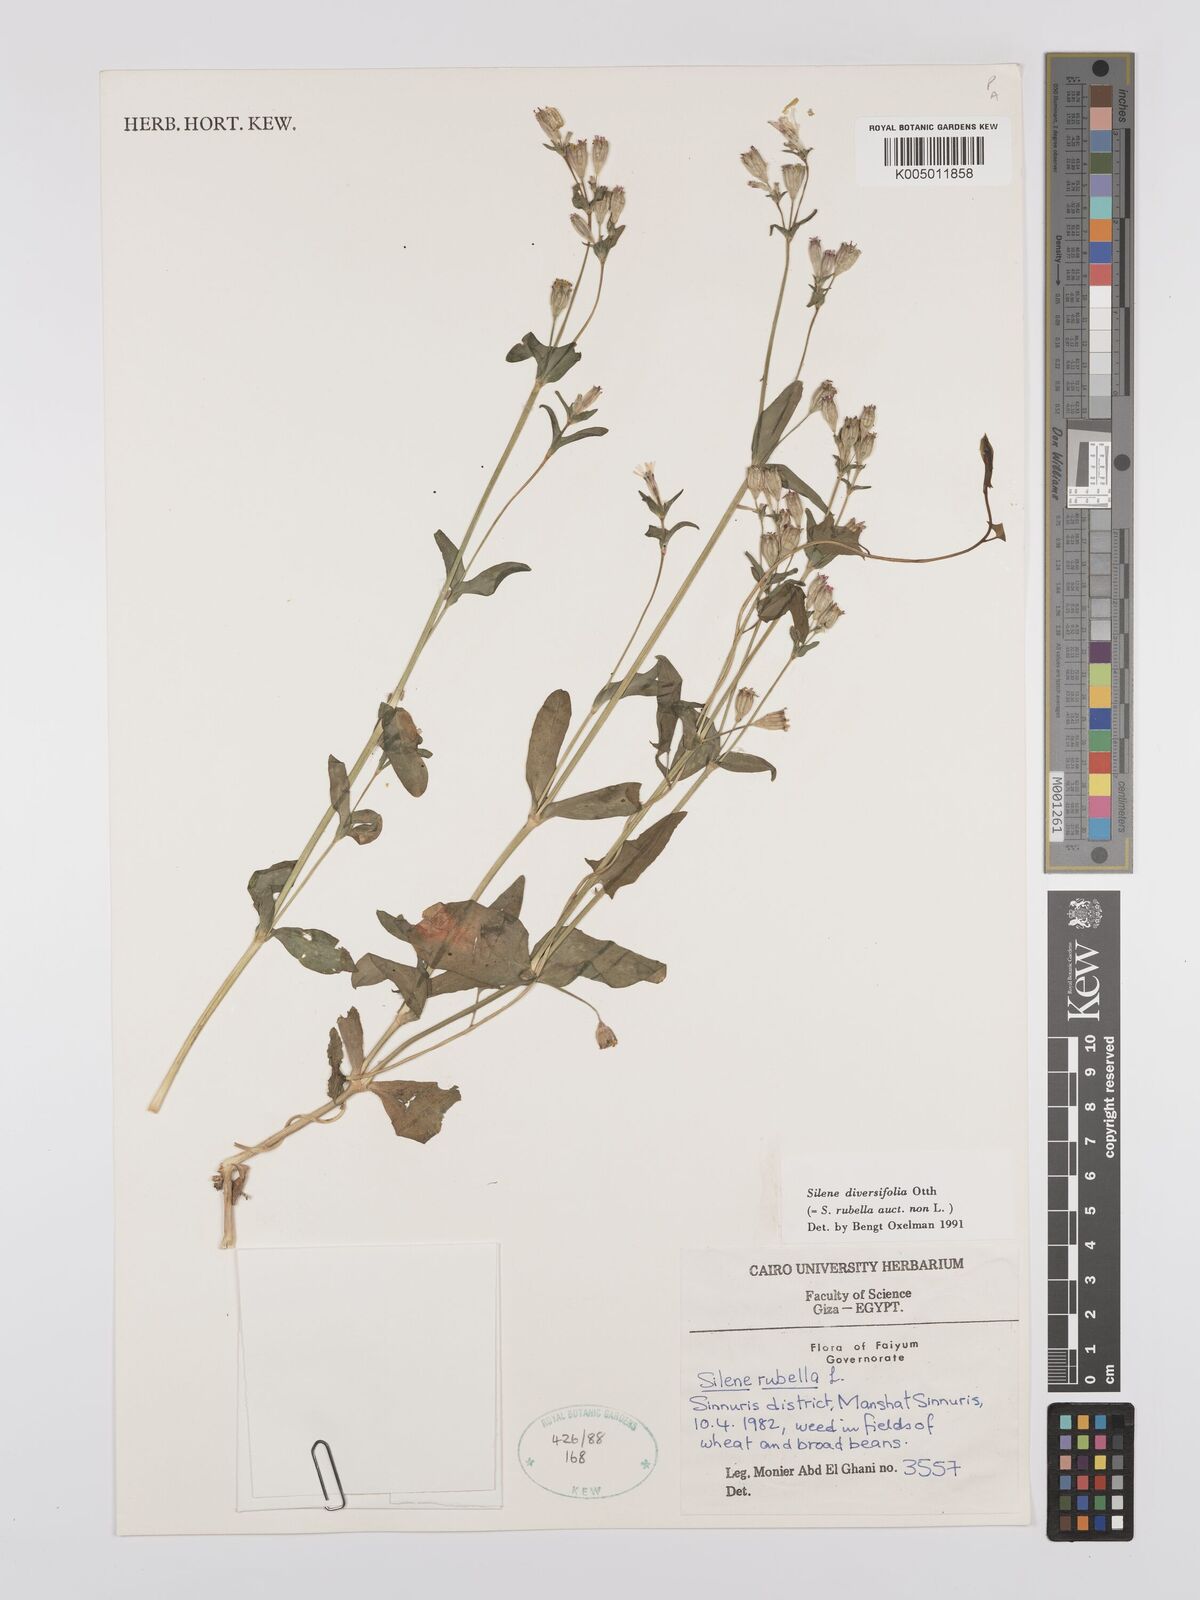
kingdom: Plantae
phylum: Tracheophyta
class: Magnoliopsida
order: Caryophyllales
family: Caryophyllaceae
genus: Silene
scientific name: Silene rubella
